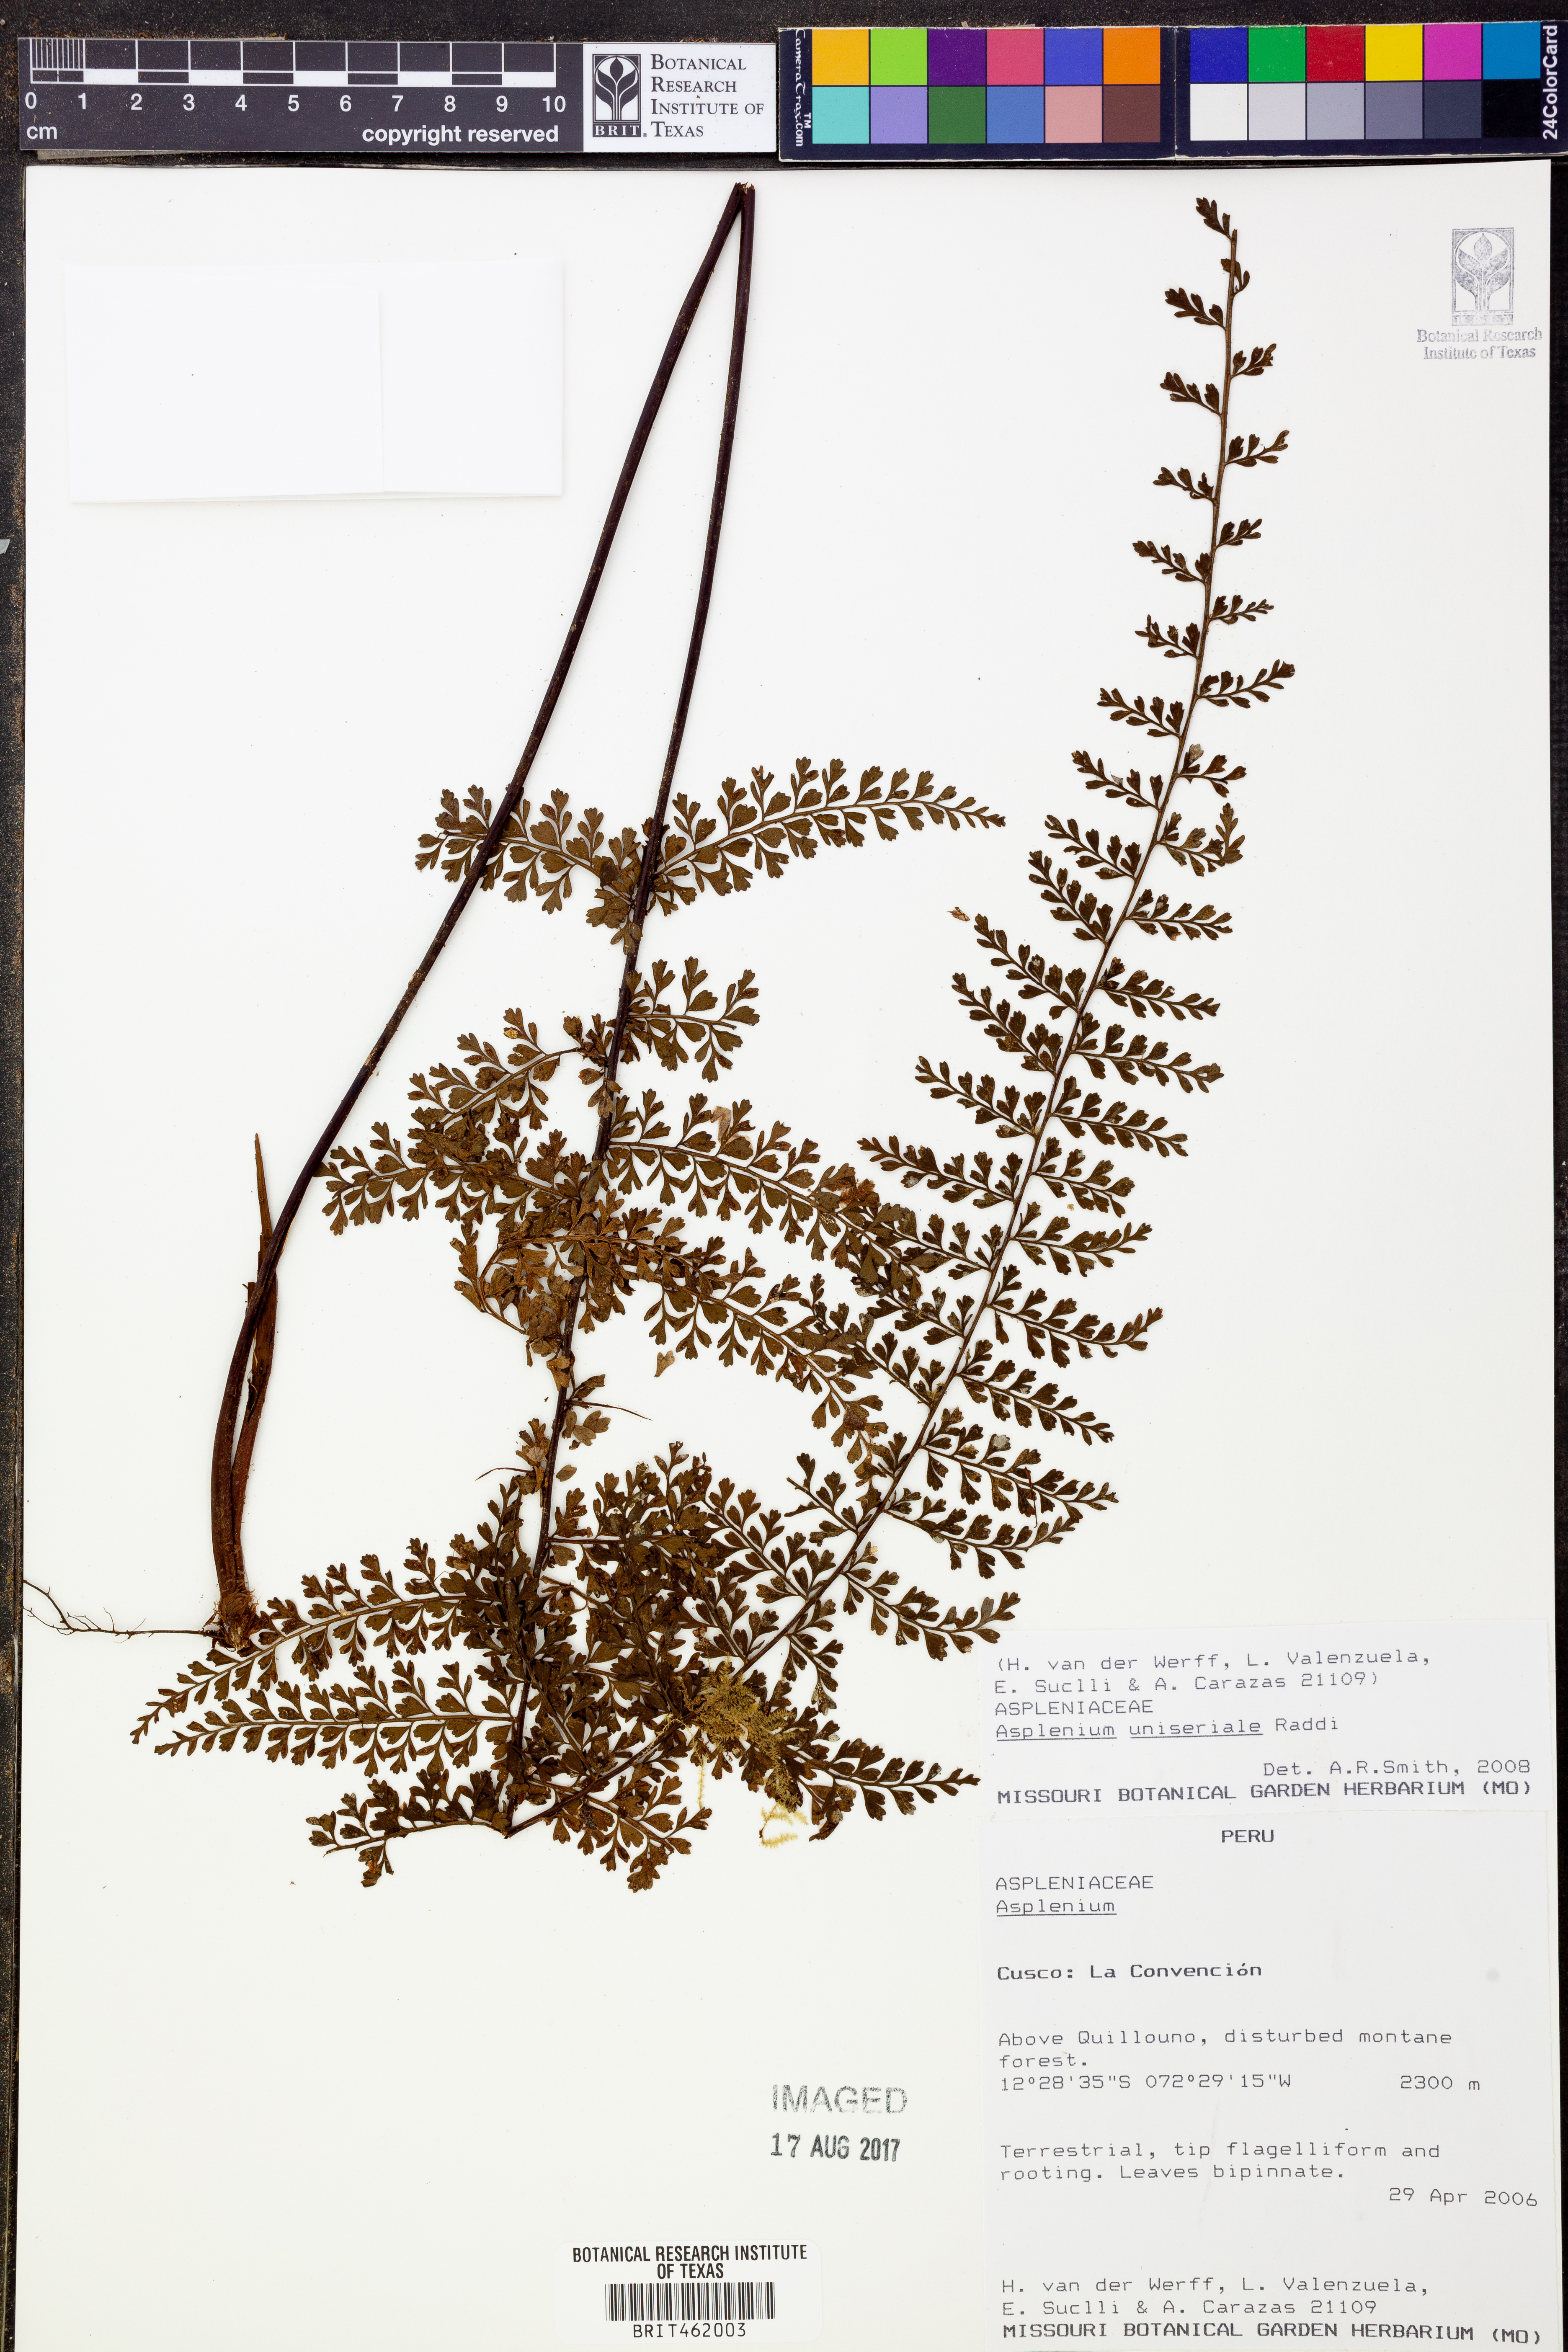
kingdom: Plantae
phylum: Tracheophyta
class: Polypodiopsida
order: Polypodiales
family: Aspleniaceae
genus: Asplenium
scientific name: Asplenium uniseriale
